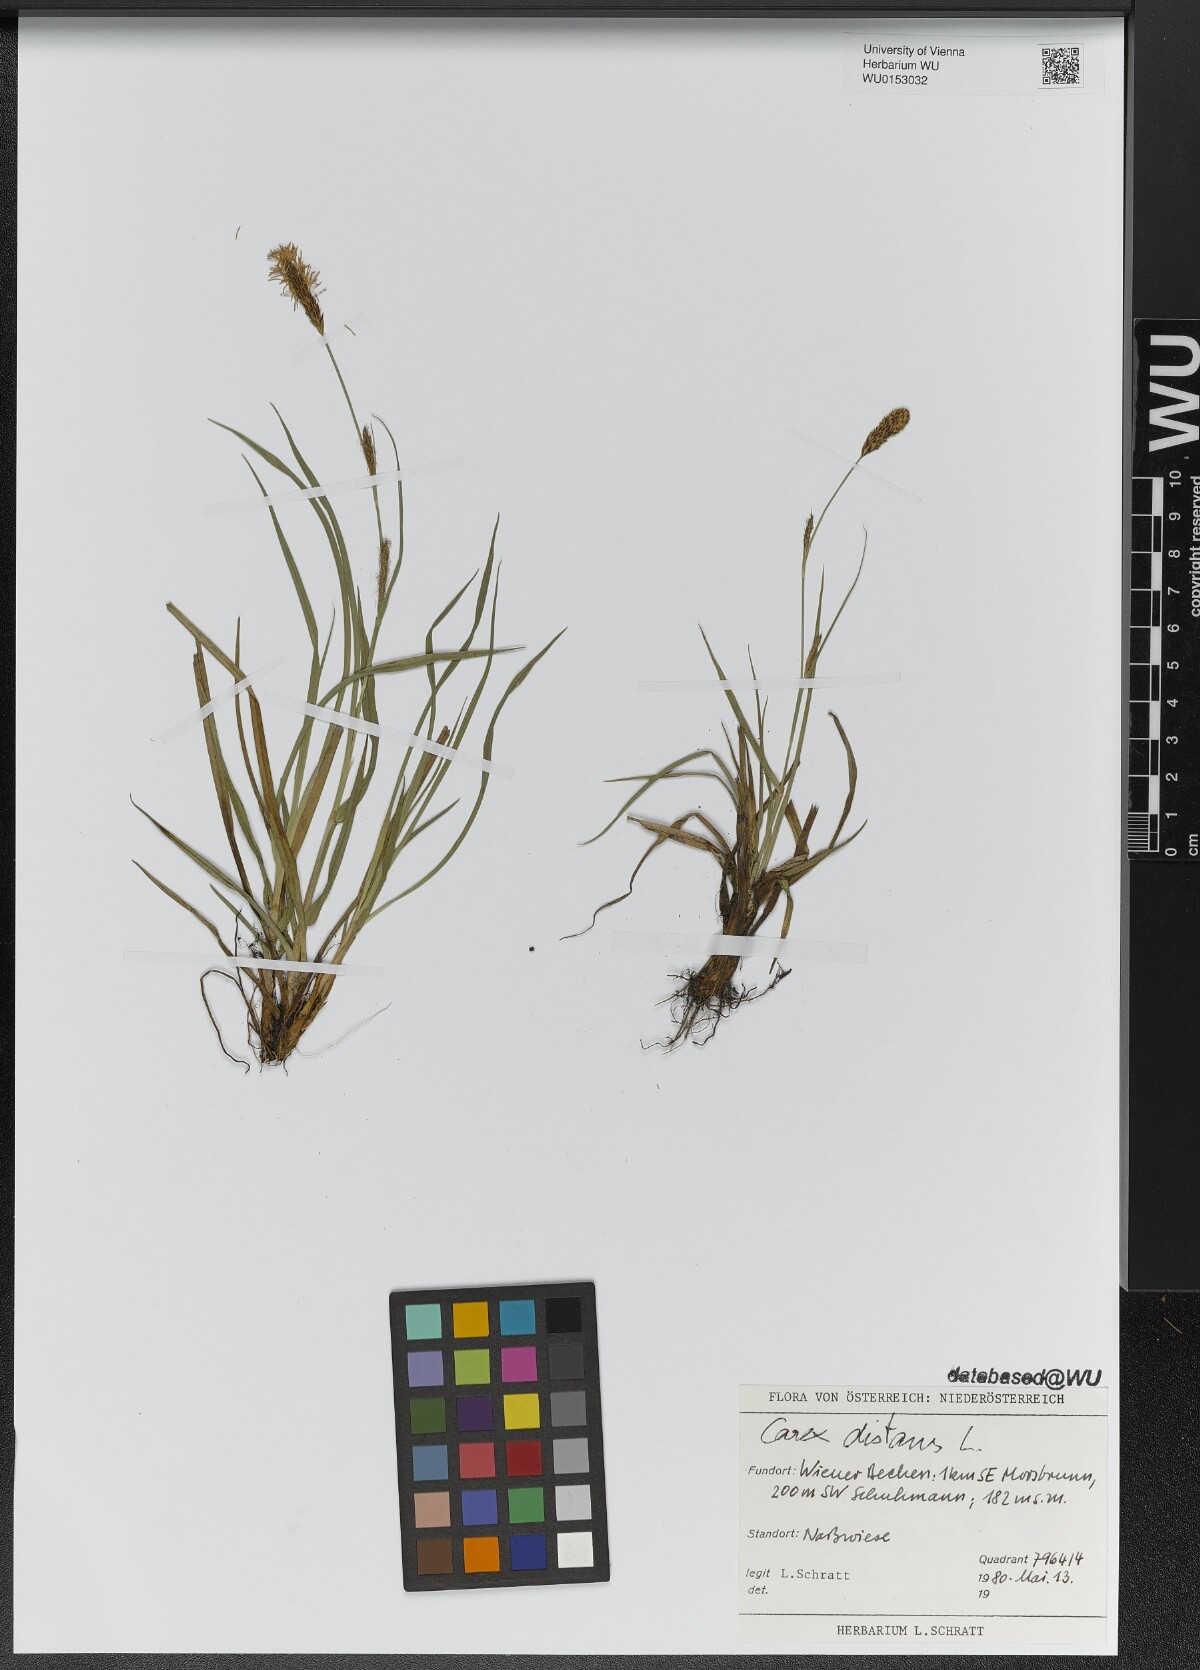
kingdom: Plantae
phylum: Tracheophyta
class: Liliopsida
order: Poales
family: Cyperaceae
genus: Carex
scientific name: Carex distans
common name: Distant sedge
